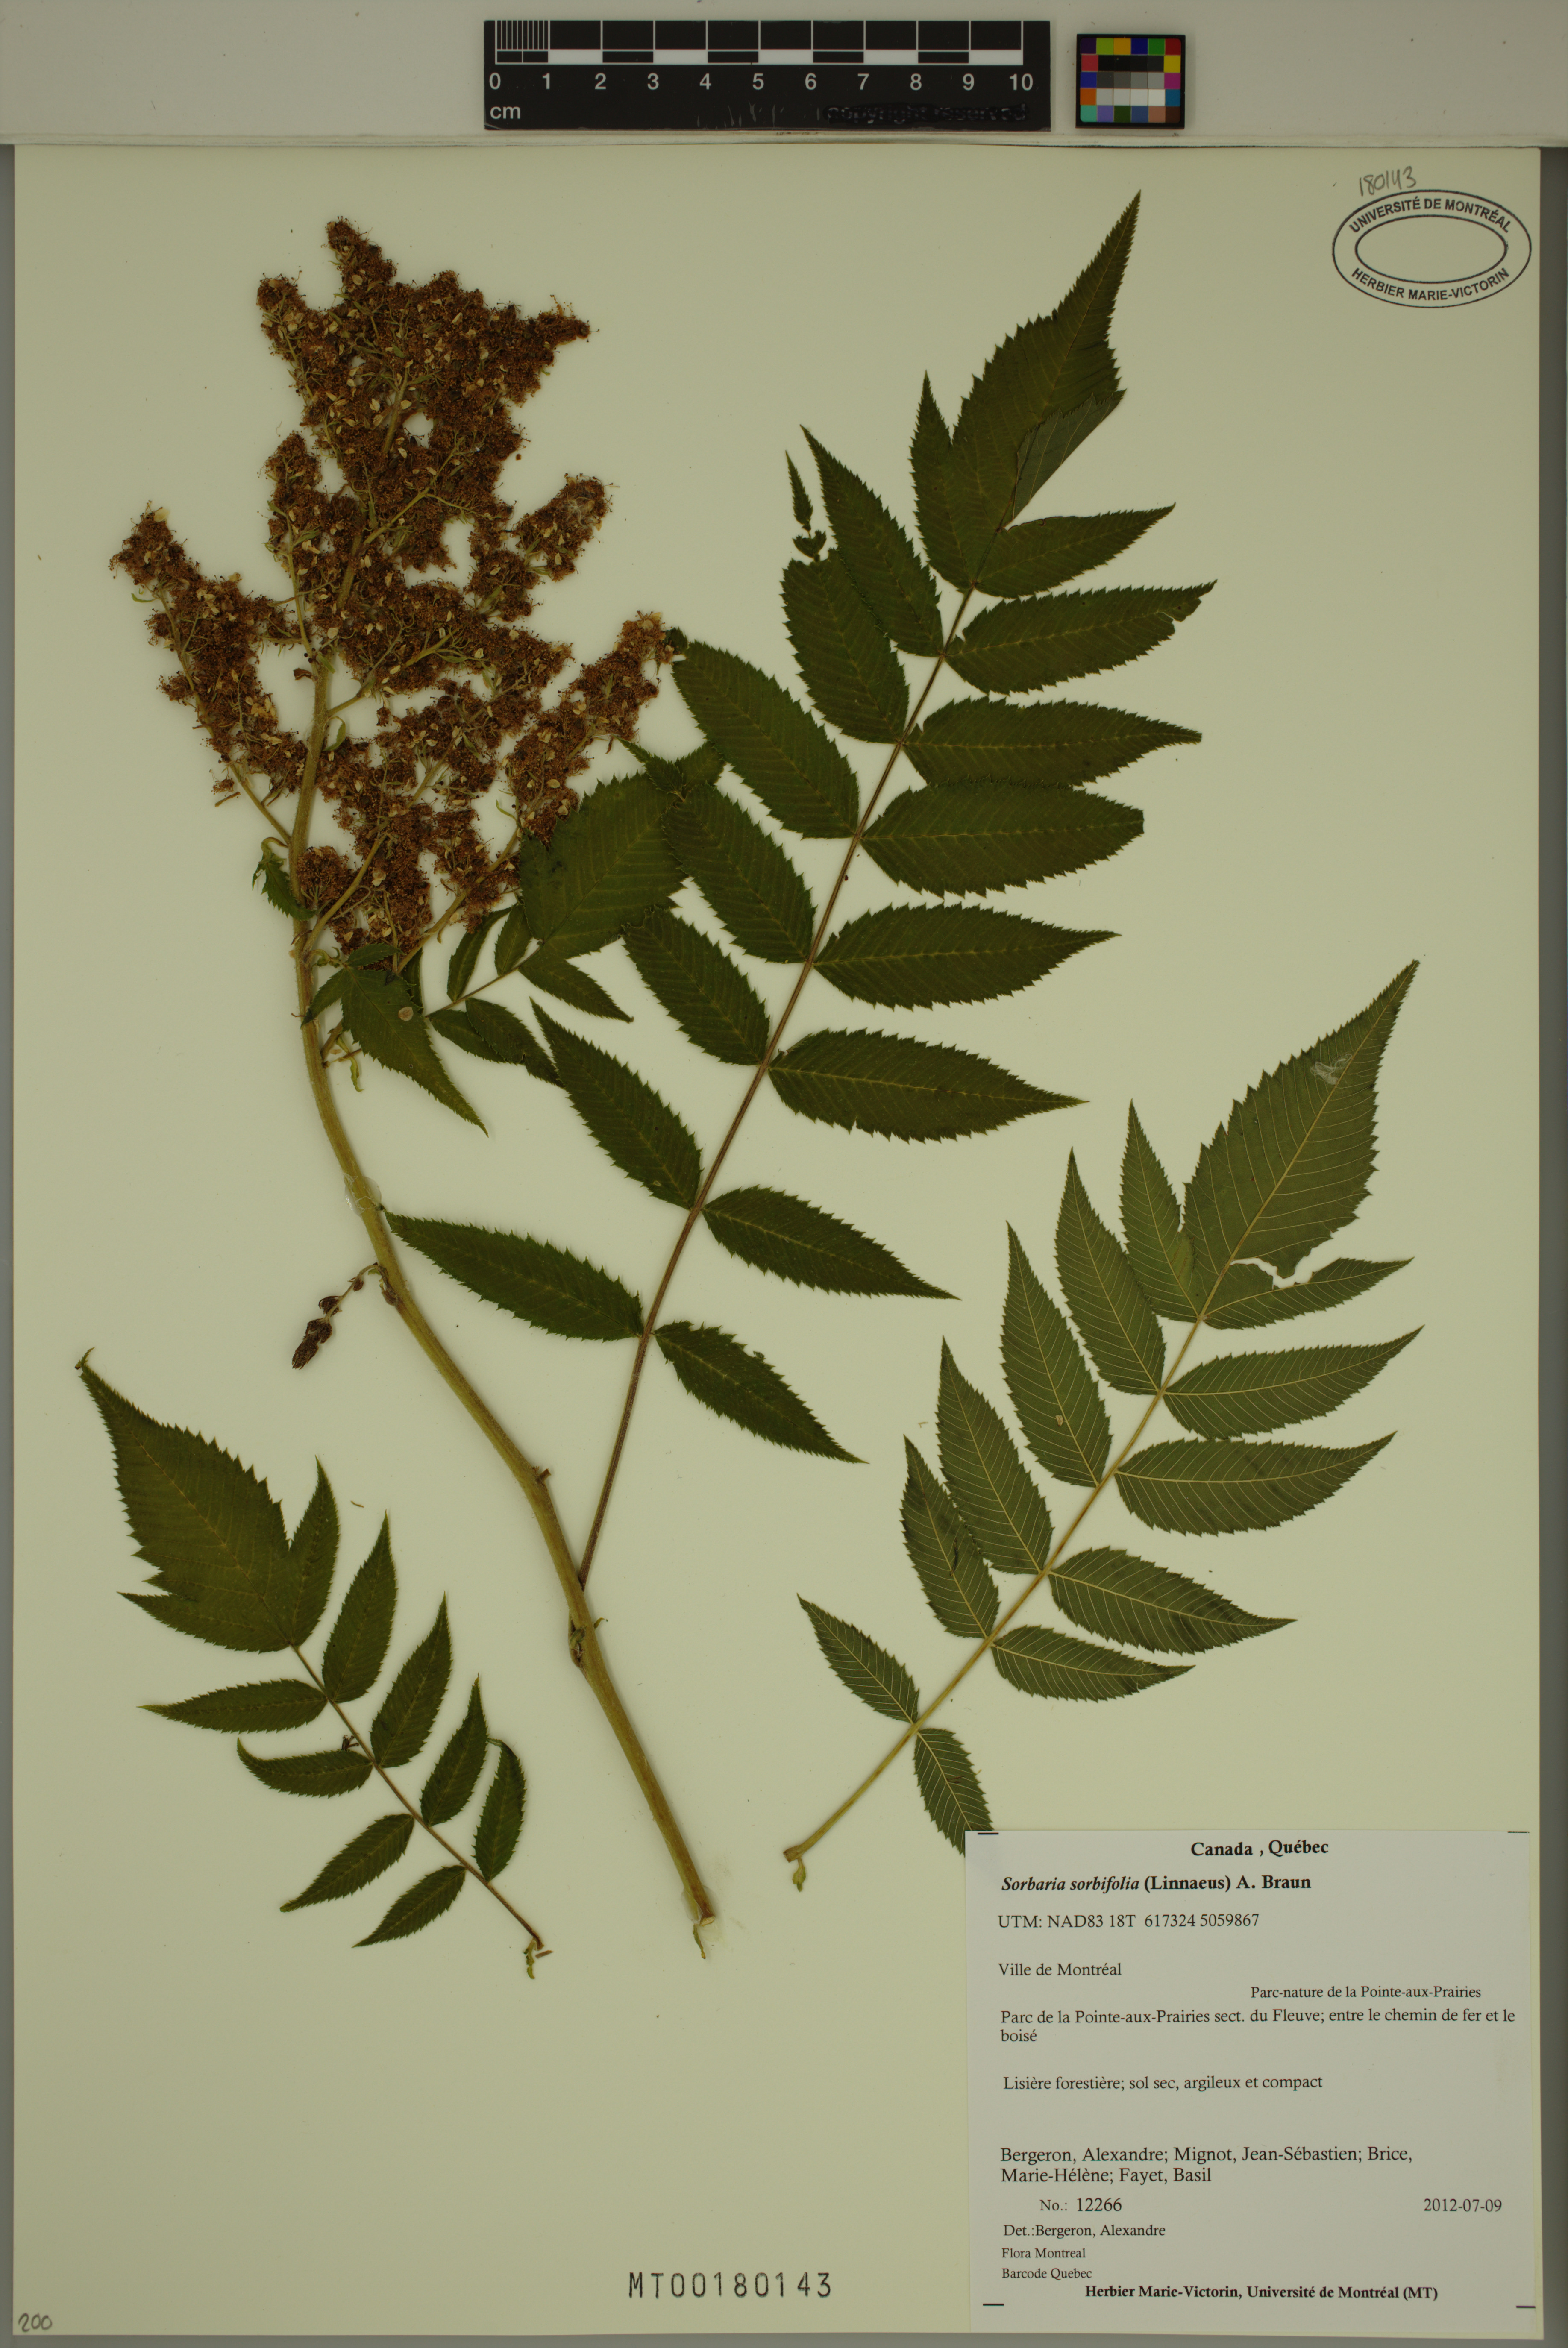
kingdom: Plantae
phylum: Tracheophyta
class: Magnoliopsida
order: Rosales
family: Rosaceae
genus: Sorbaria
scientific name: Sorbaria sorbifolia
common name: False spiraea
